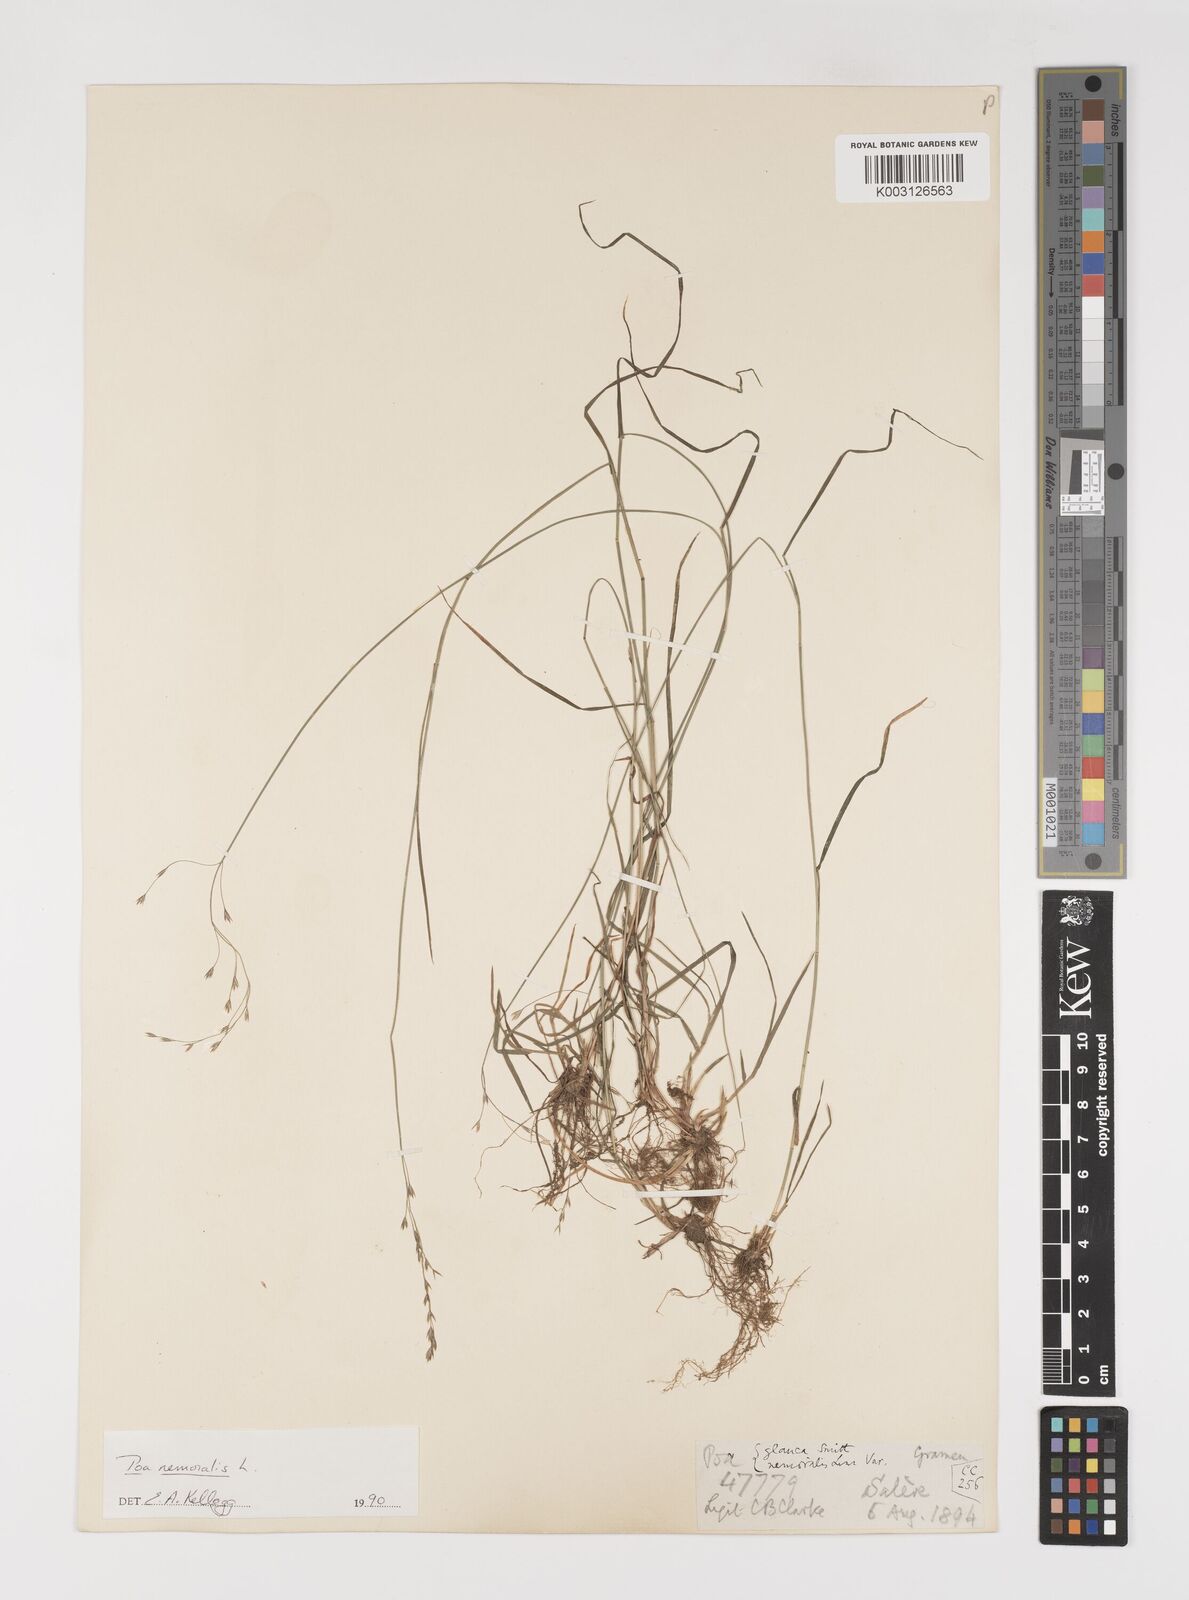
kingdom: Plantae
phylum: Tracheophyta
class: Liliopsida
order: Poales
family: Poaceae
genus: Poa
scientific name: Poa nemoralis
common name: Wood bluegrass
